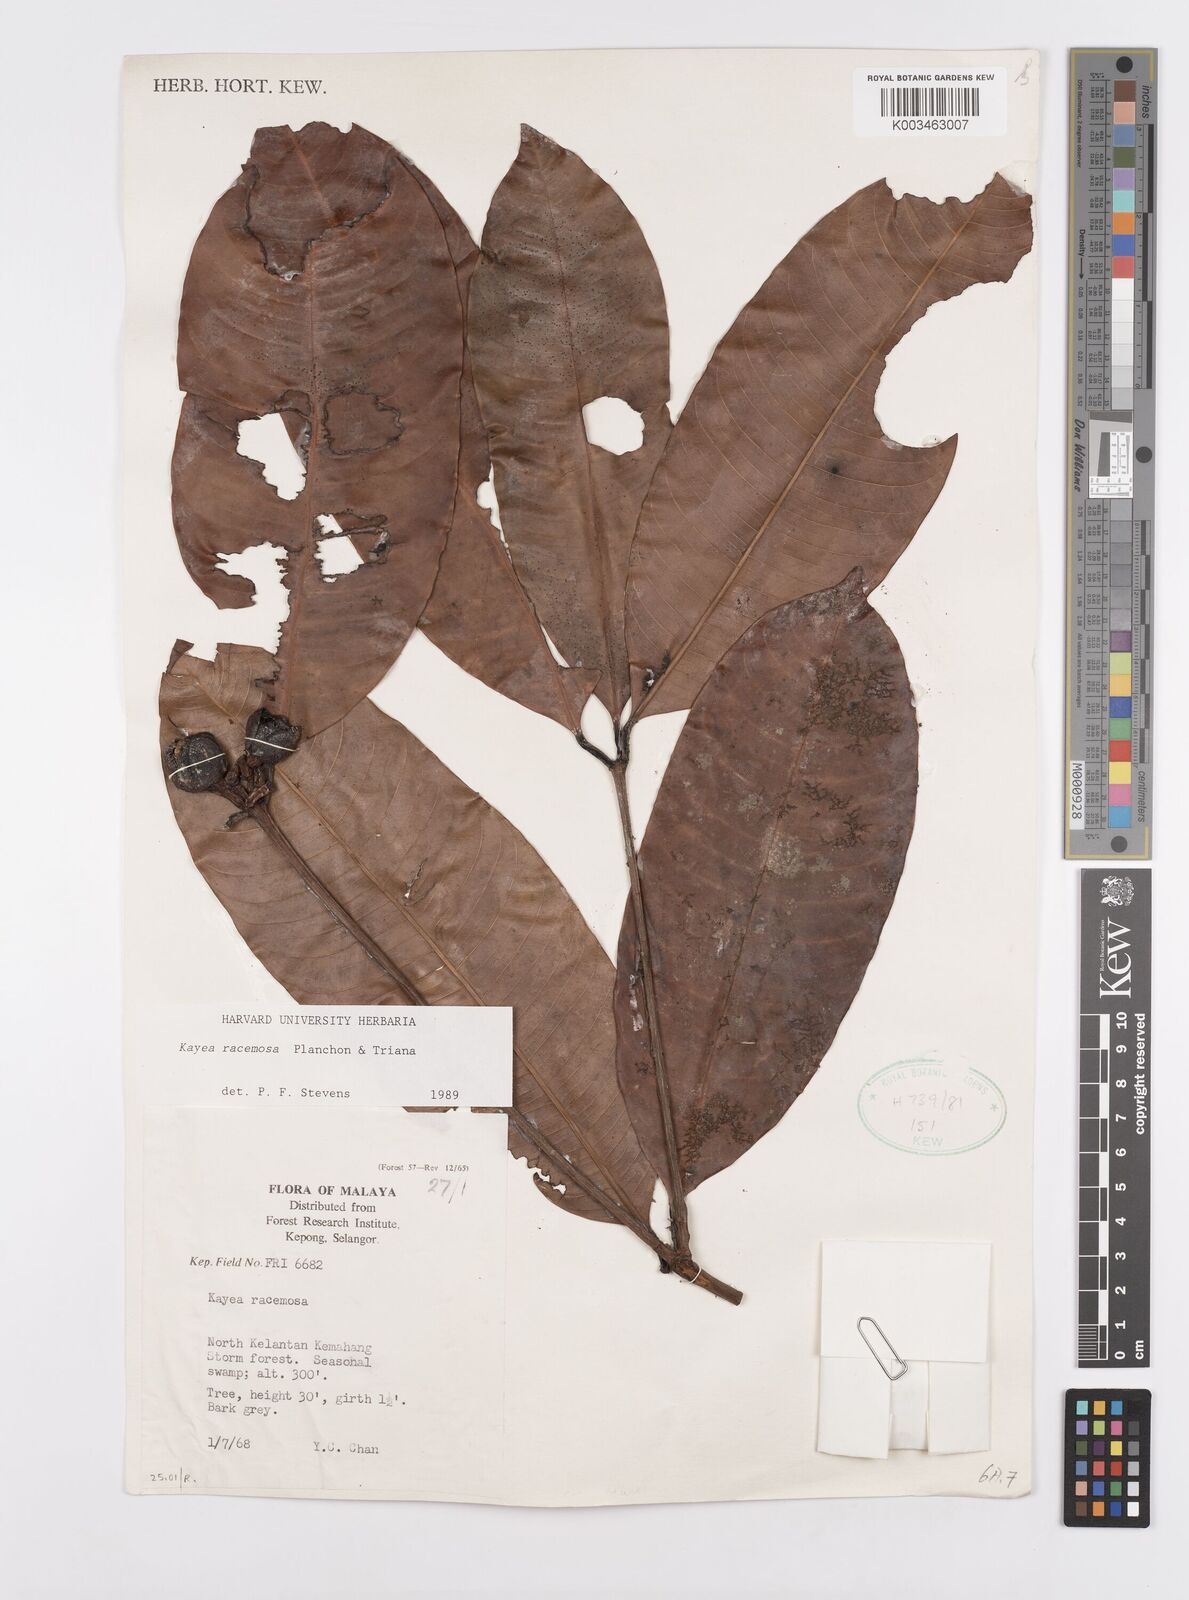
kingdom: Plantae
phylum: Tracheophyta
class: Magnoliopsida
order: Malpighiales
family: Calophyllaceae
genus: Kayea
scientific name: Kayea racemosa
